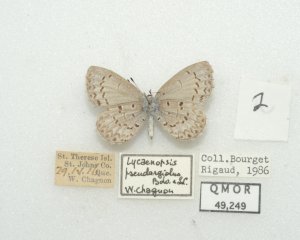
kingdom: Animalia
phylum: Arthropoda
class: Insecta
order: Lepidoptera
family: Lycaenidae
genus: Celastrina
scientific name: Celastrina lucia
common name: Northern Spring Azure
